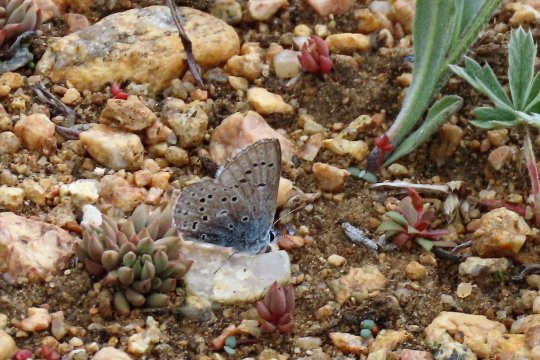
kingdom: Animalia
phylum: Arthropoda
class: Insecta
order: Lepidoptera
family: Lycaenidae
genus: Plebejus
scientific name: Plebejus saepiolus
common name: Greenish Blue
